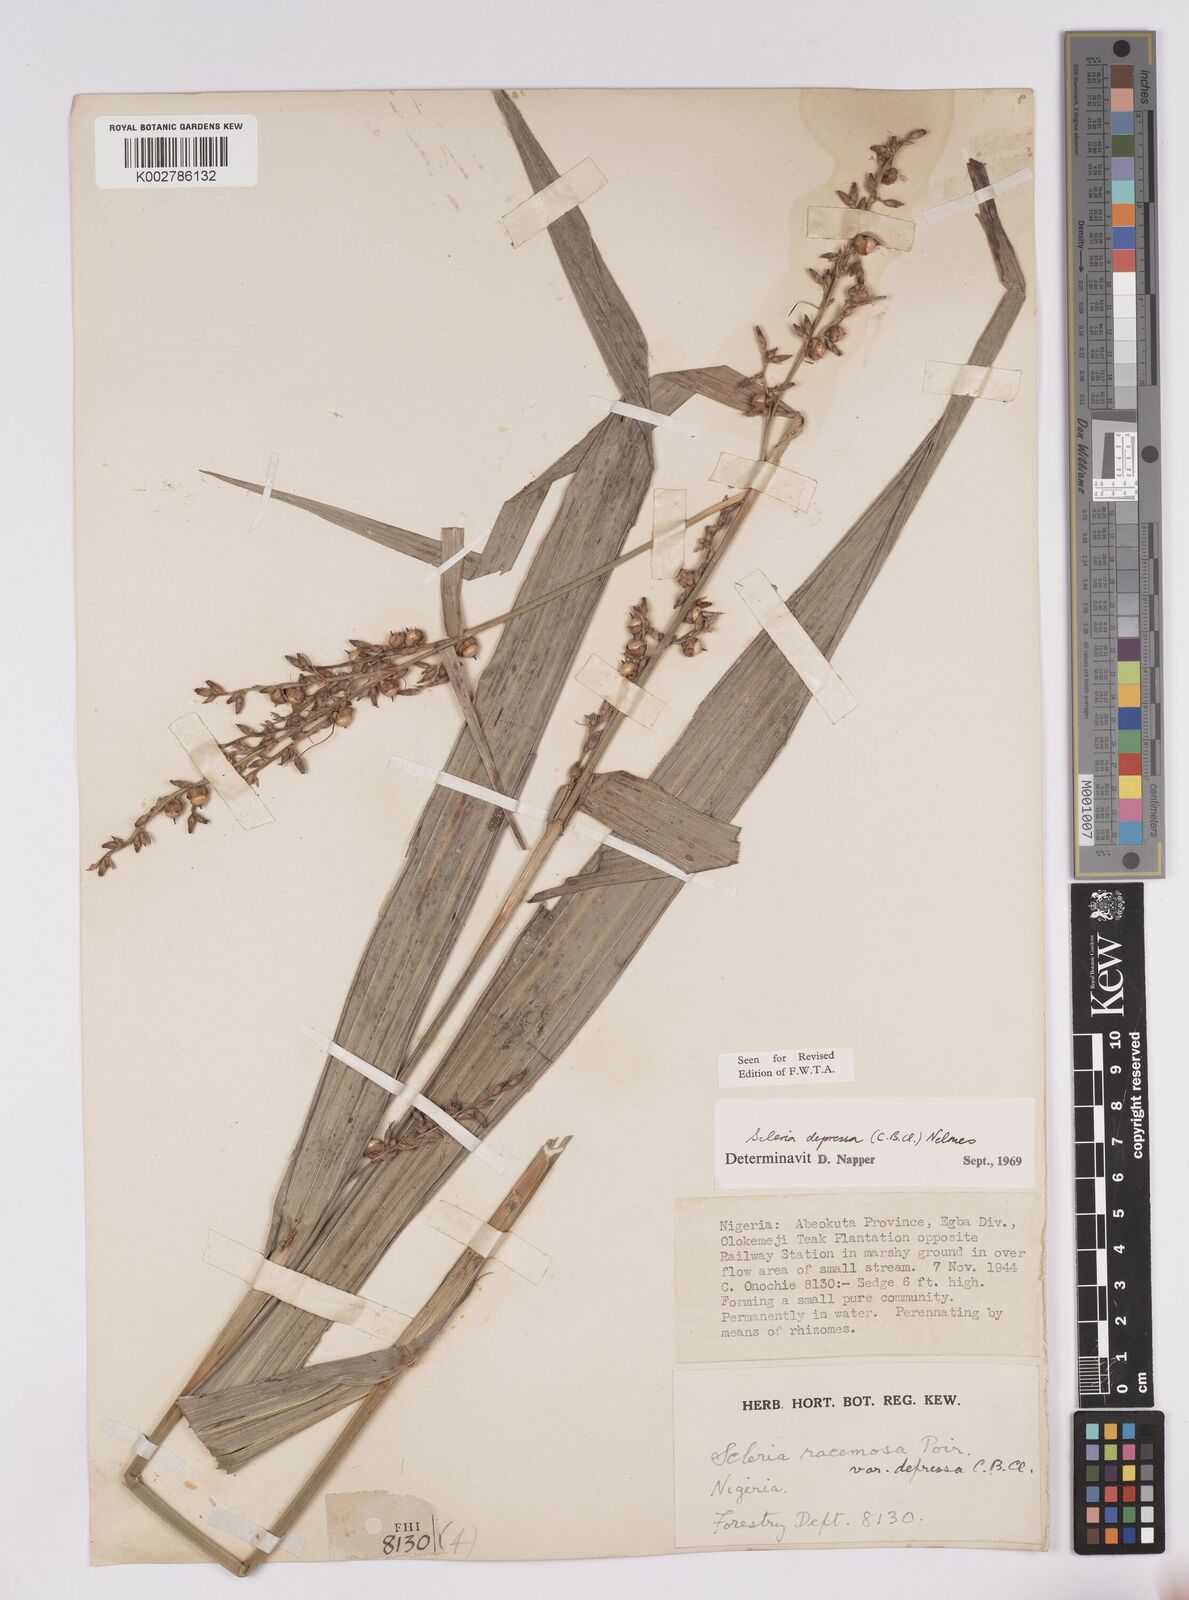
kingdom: Plantae
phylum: Tracheophyta
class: Liliopsida
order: Poales
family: Cyperaceae
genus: Scleria
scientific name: Scleria depressa
